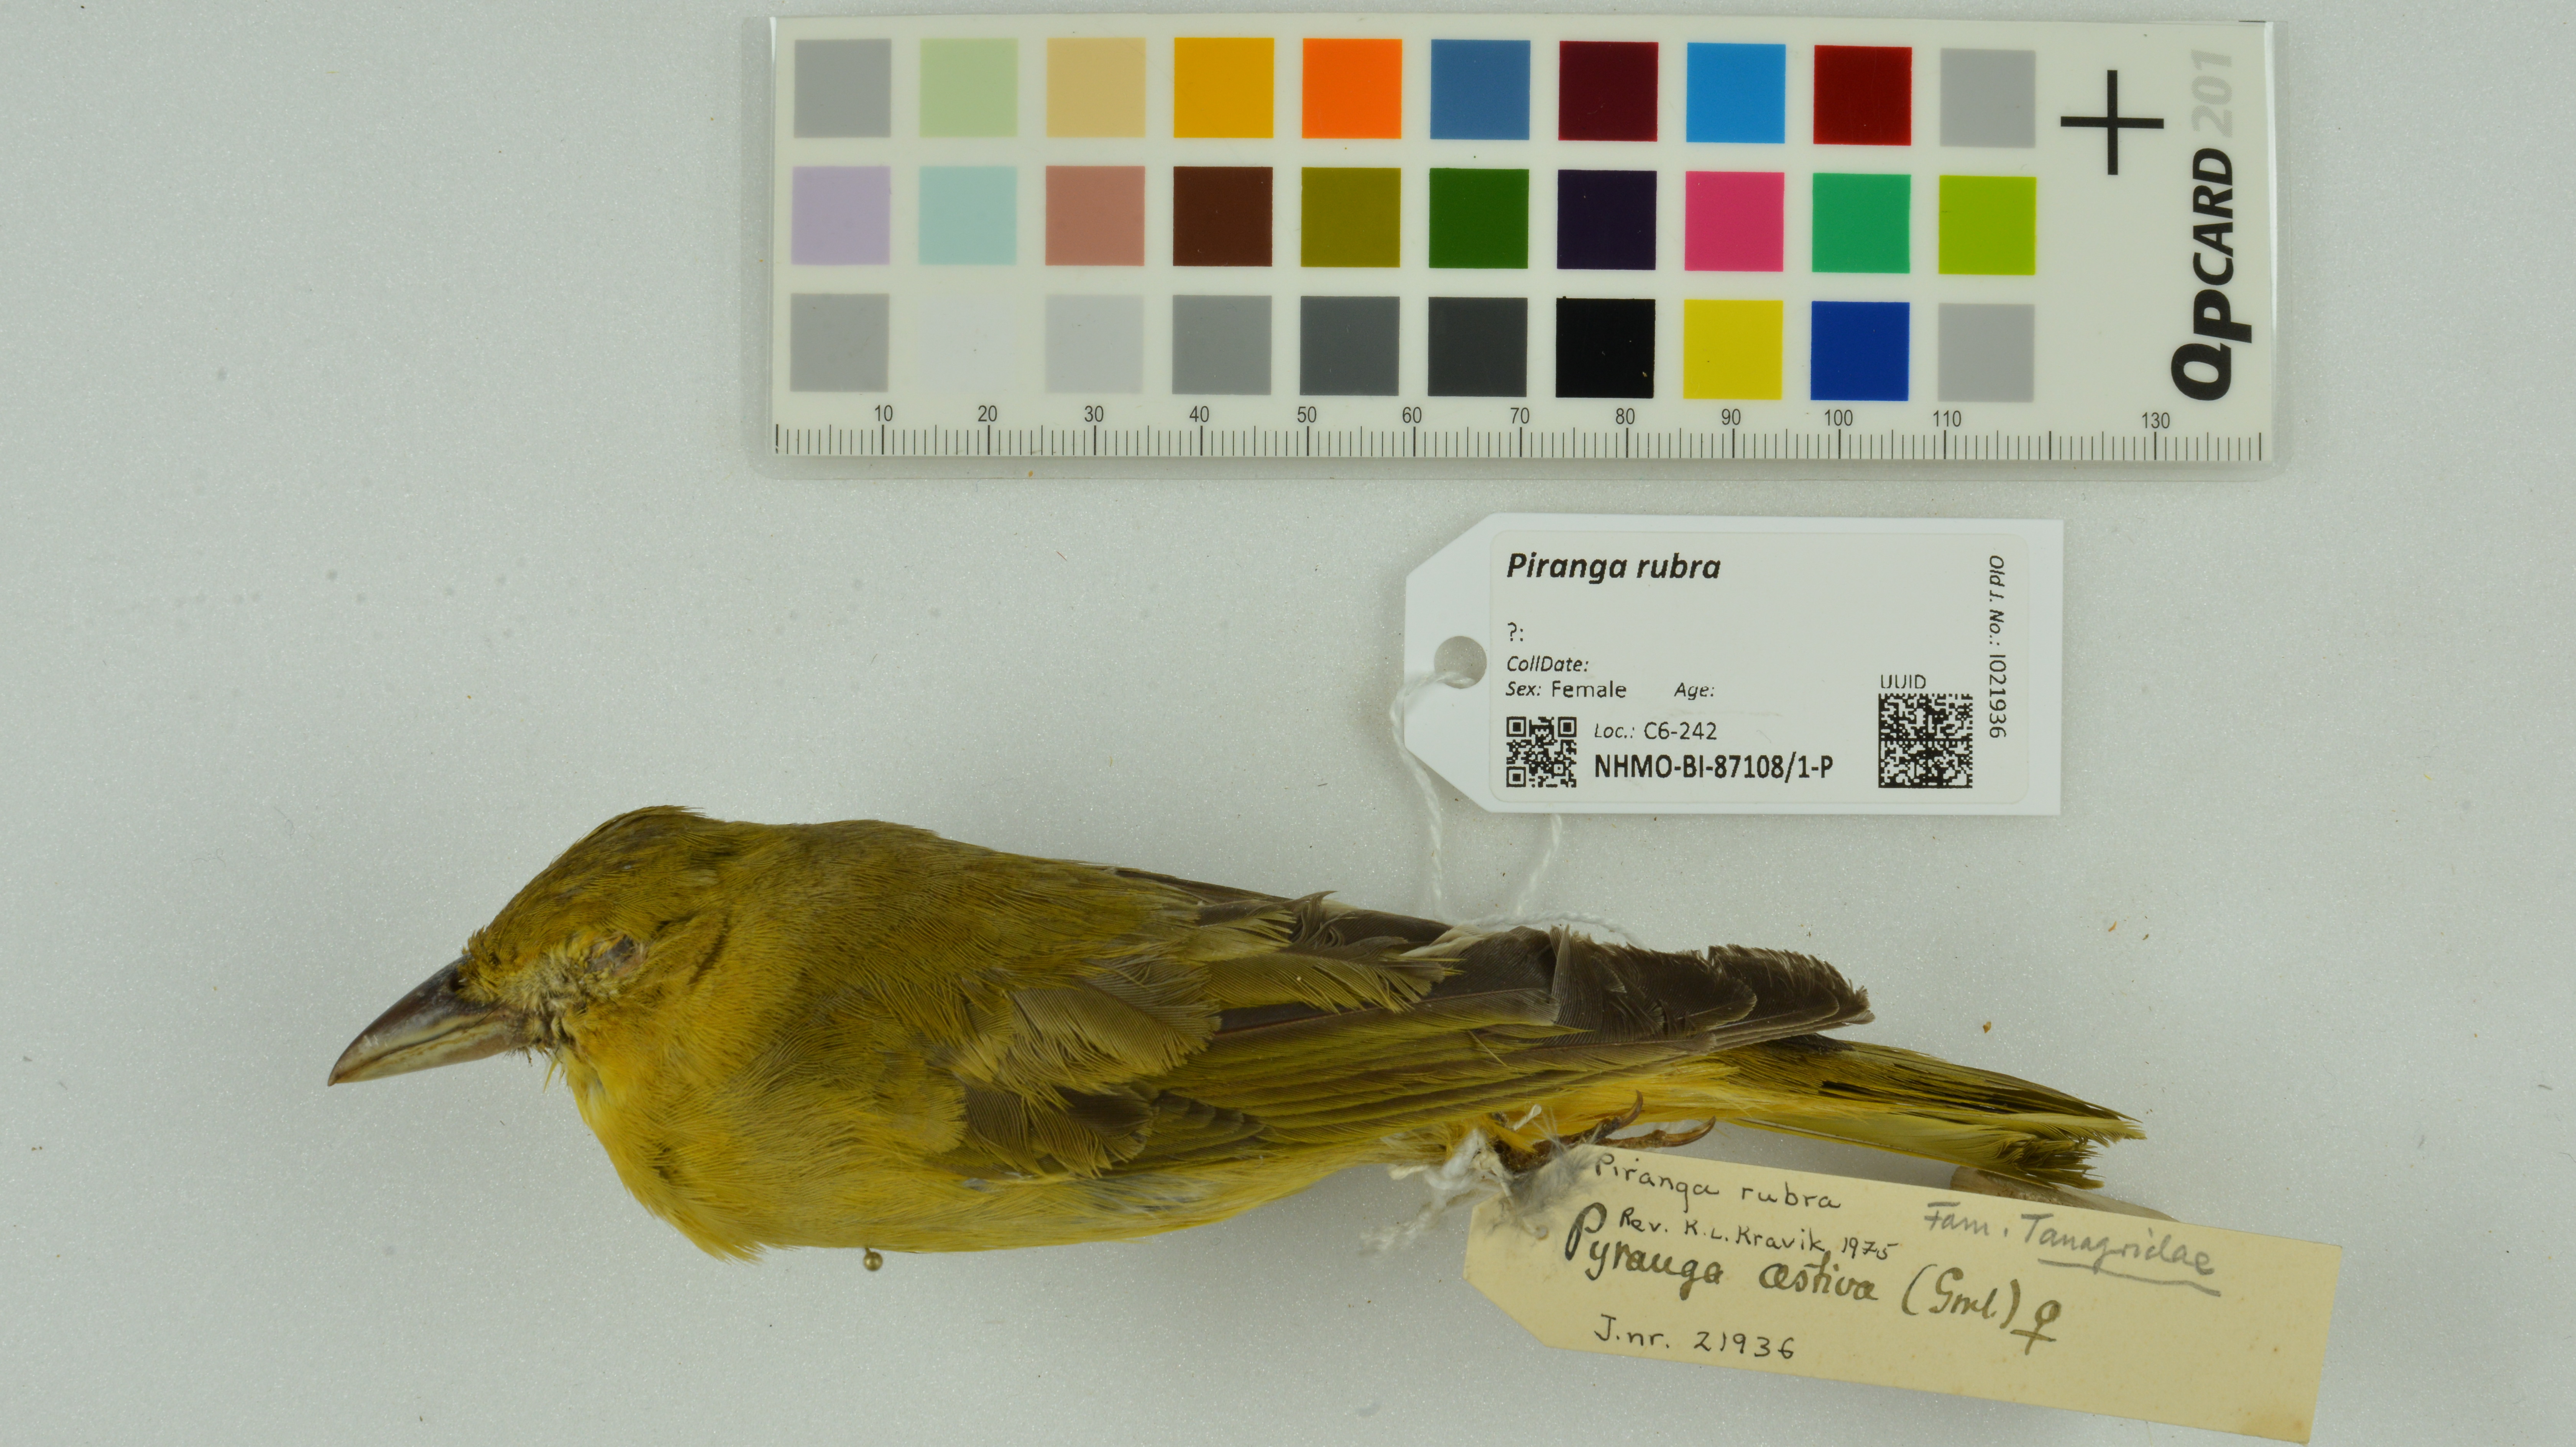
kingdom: Animalia
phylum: Chordata
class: Aves
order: Passeriformes
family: Cardinalidae
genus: Piranga
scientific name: Piranga rubra
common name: Summer tanager
